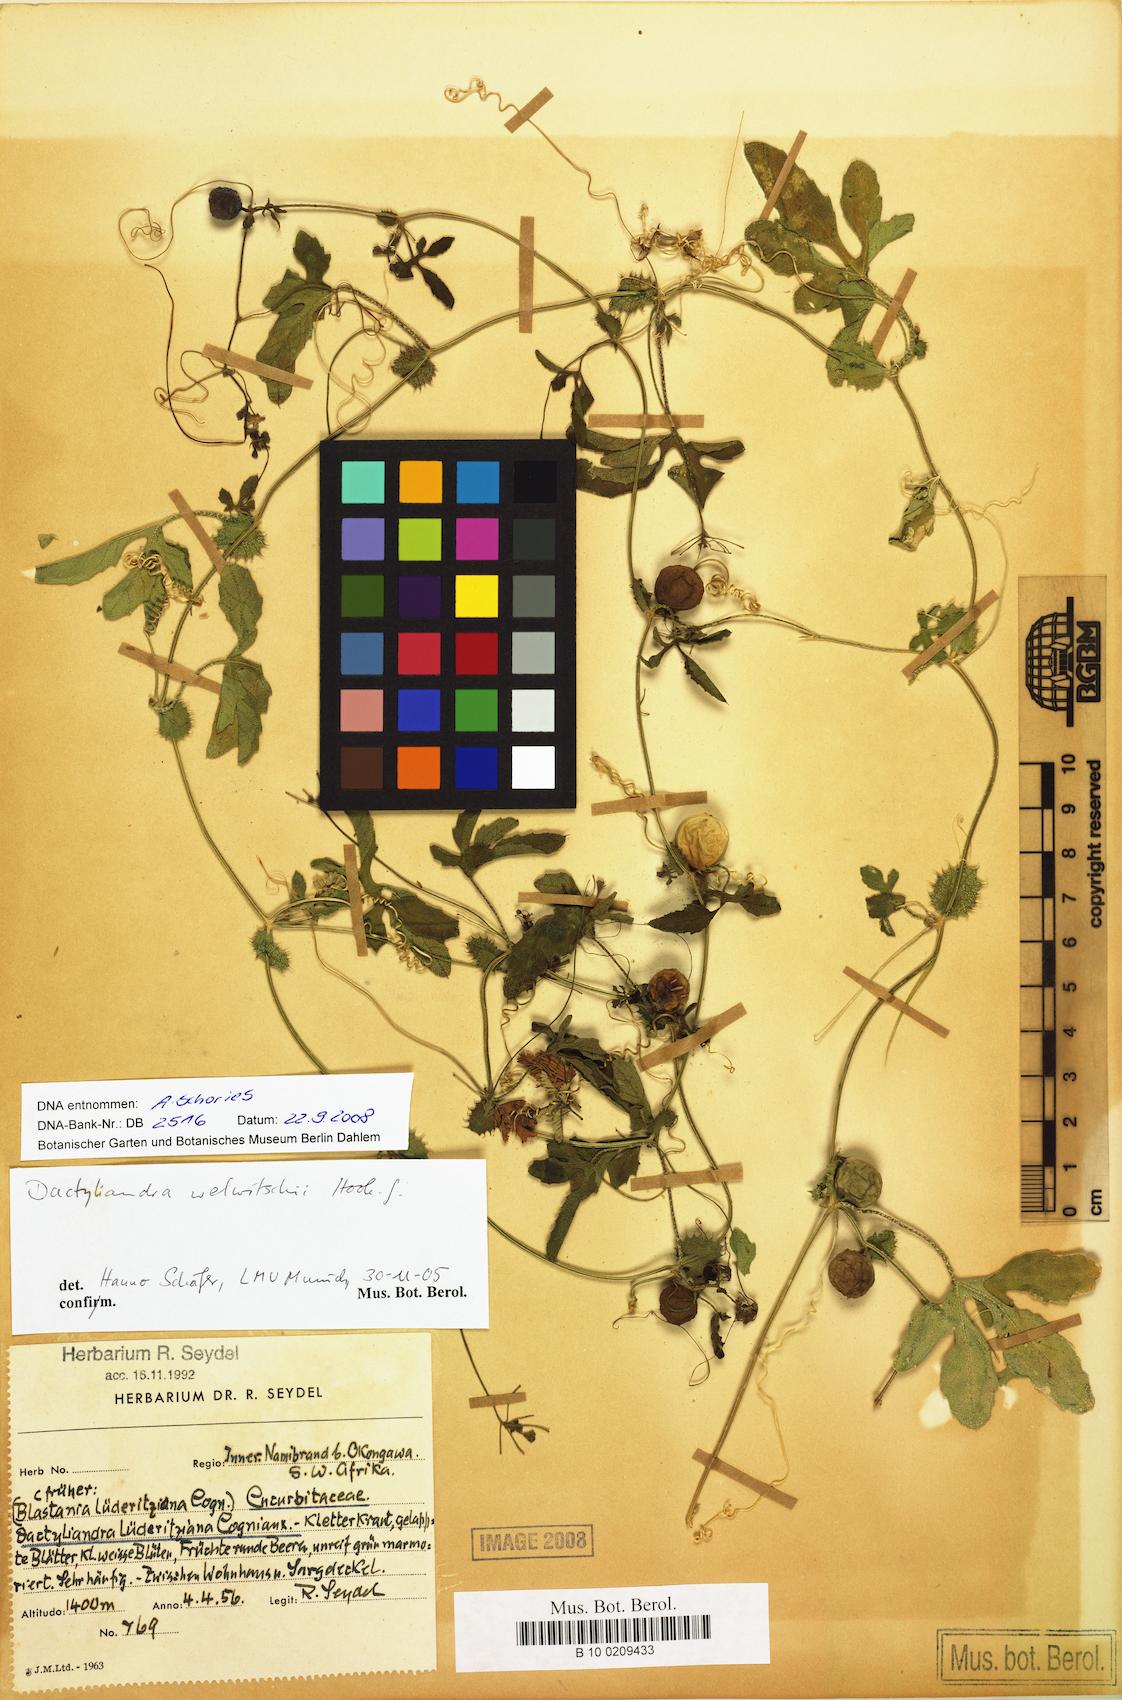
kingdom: Plantae
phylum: Tracheophyta
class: Magnoliopsida
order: Cucurbitales
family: Cucurbitaceae
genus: Dactyliandra
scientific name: Dactyliandra welwitschii
